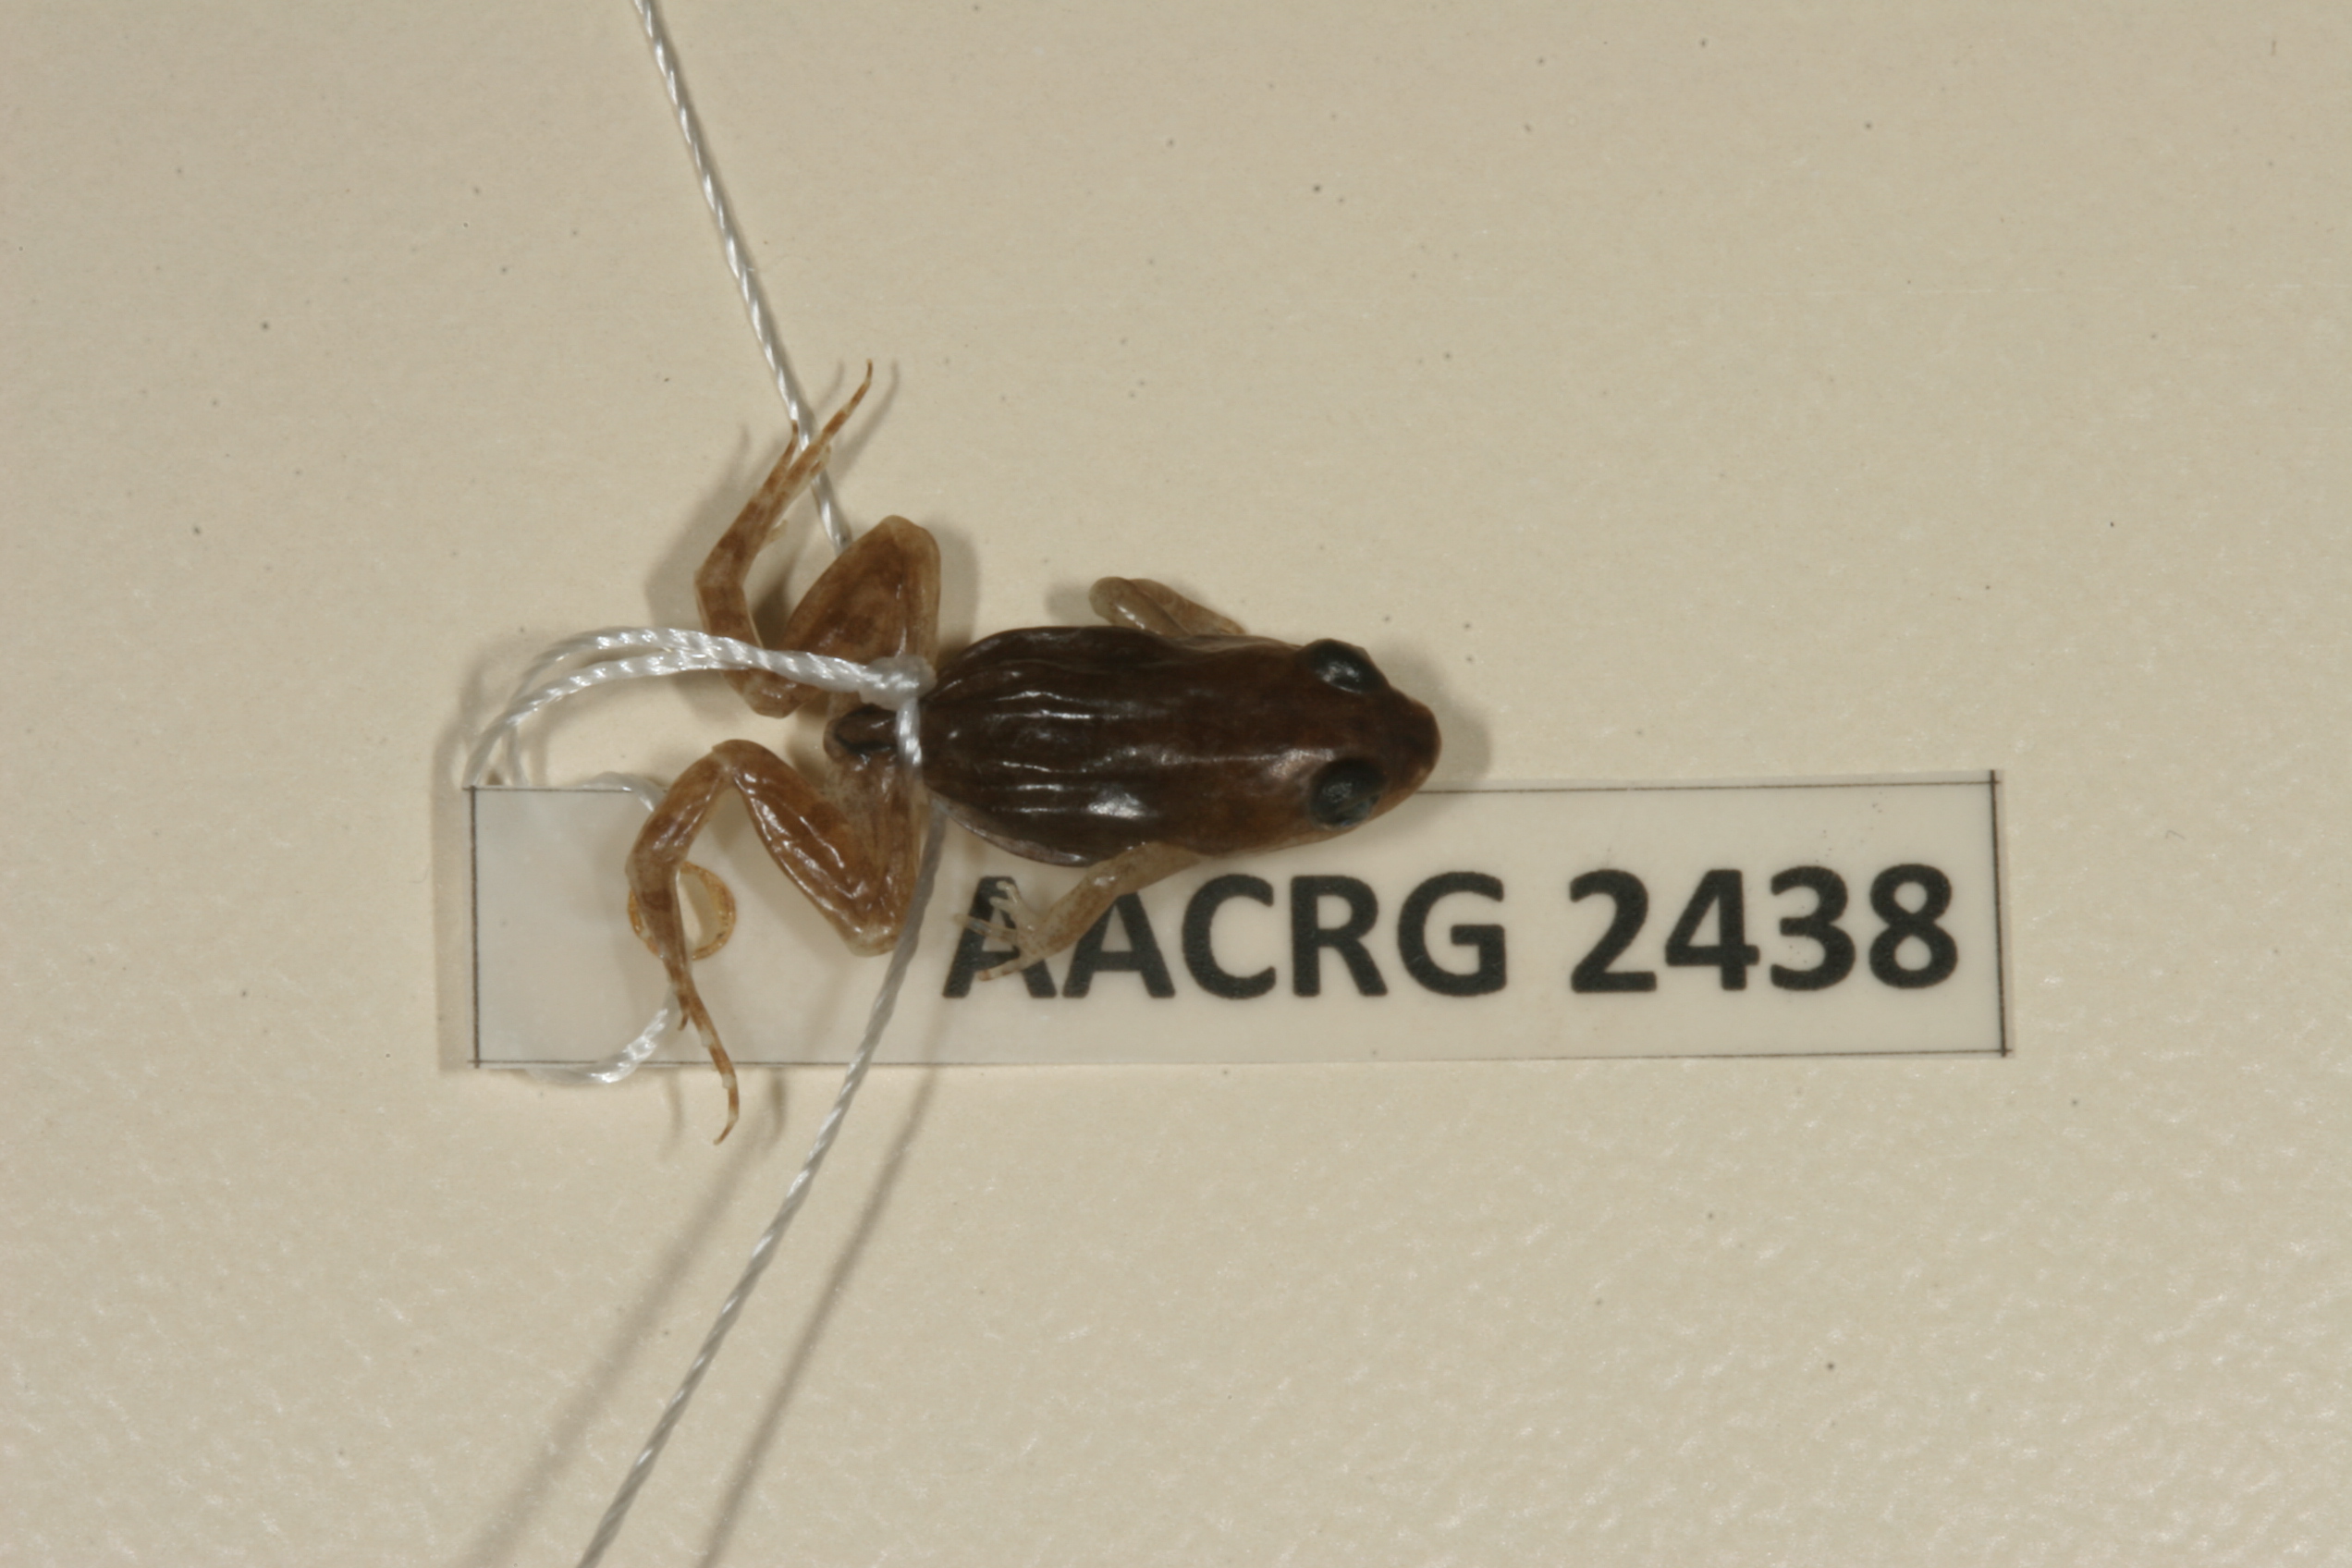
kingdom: Animalia
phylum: Chordata
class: Amphibia
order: Anura
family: Pyxicephalidae
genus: Cacosternum
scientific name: Cacosternum boettgeri
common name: Boettger's frog
